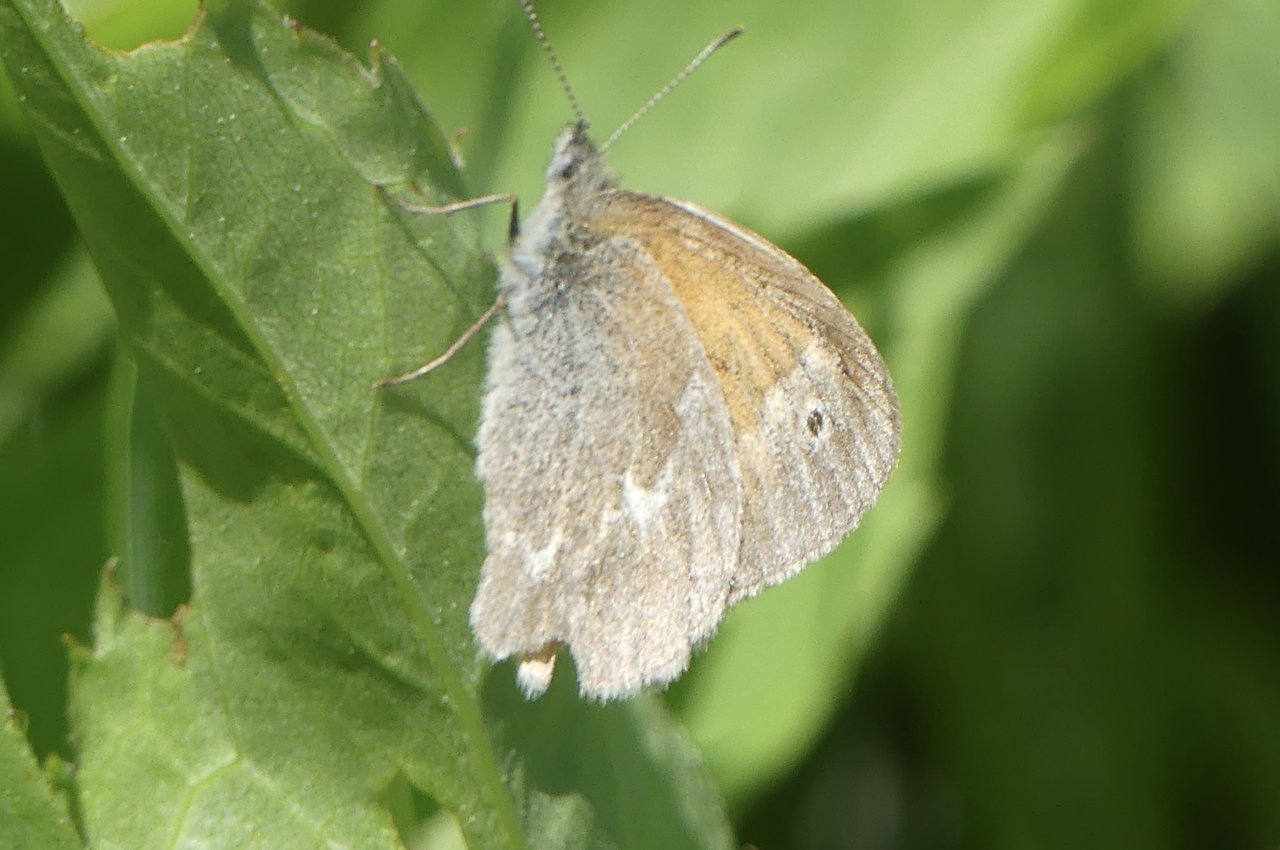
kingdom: Animalia
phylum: Arthropoda
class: Insecta
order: Lepidoptera
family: Nymphalidae
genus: Coenonympha
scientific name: Coenonympha tullia
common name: Large Heath
